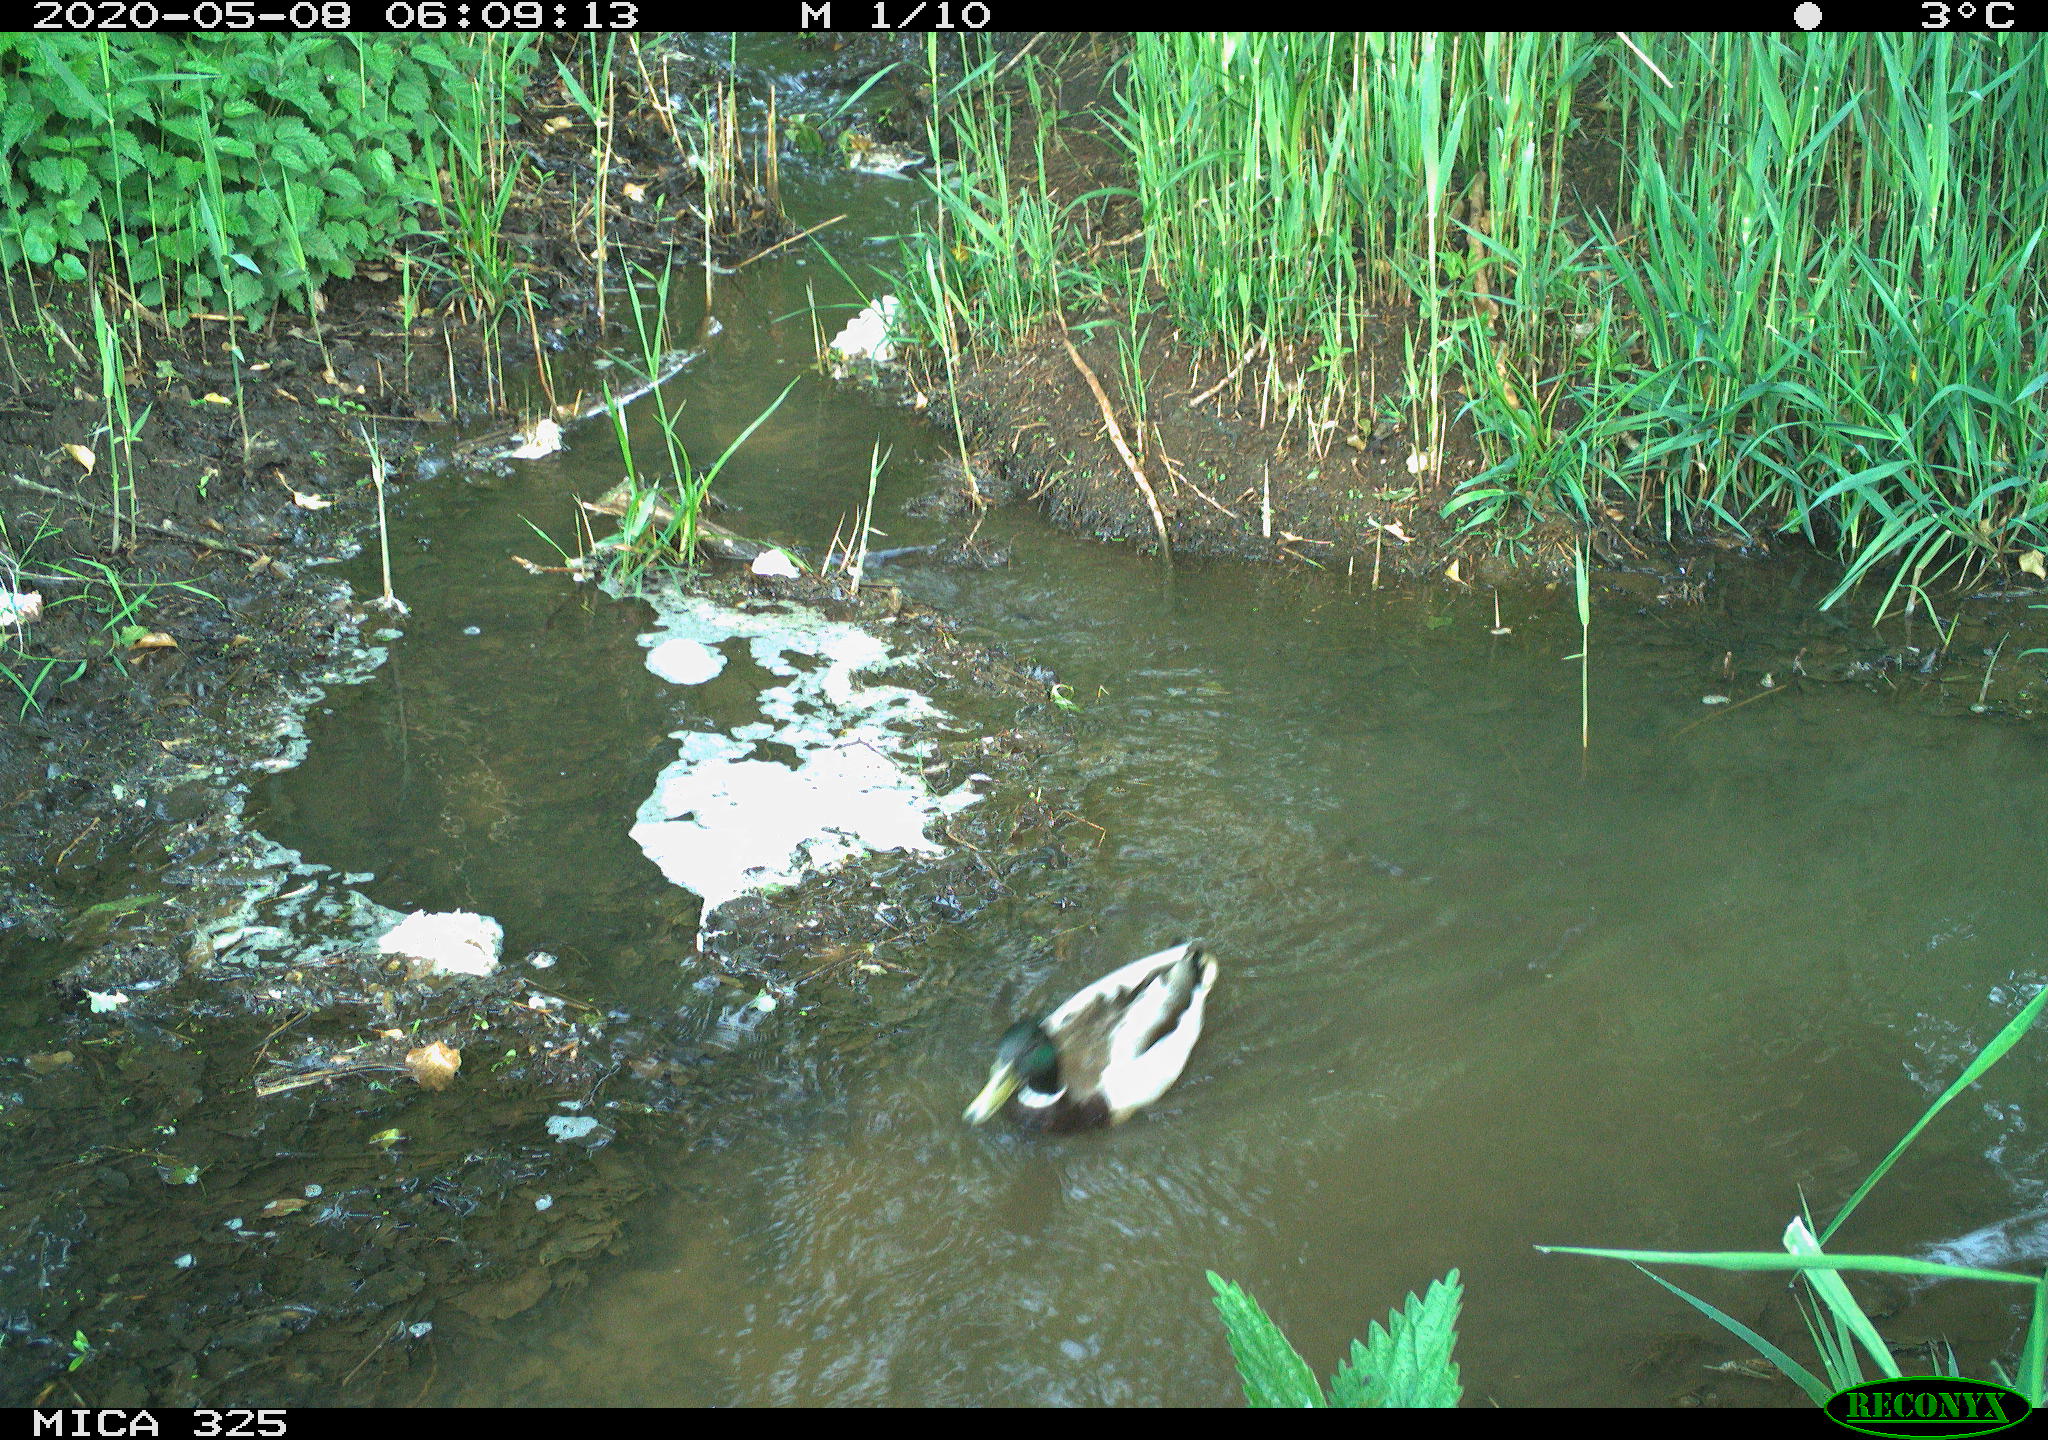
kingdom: Animalia
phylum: Chordata
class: Aves
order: Anseriformes
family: Anatidae
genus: Anas
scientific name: Anas platyrhynchos
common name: Mallard
